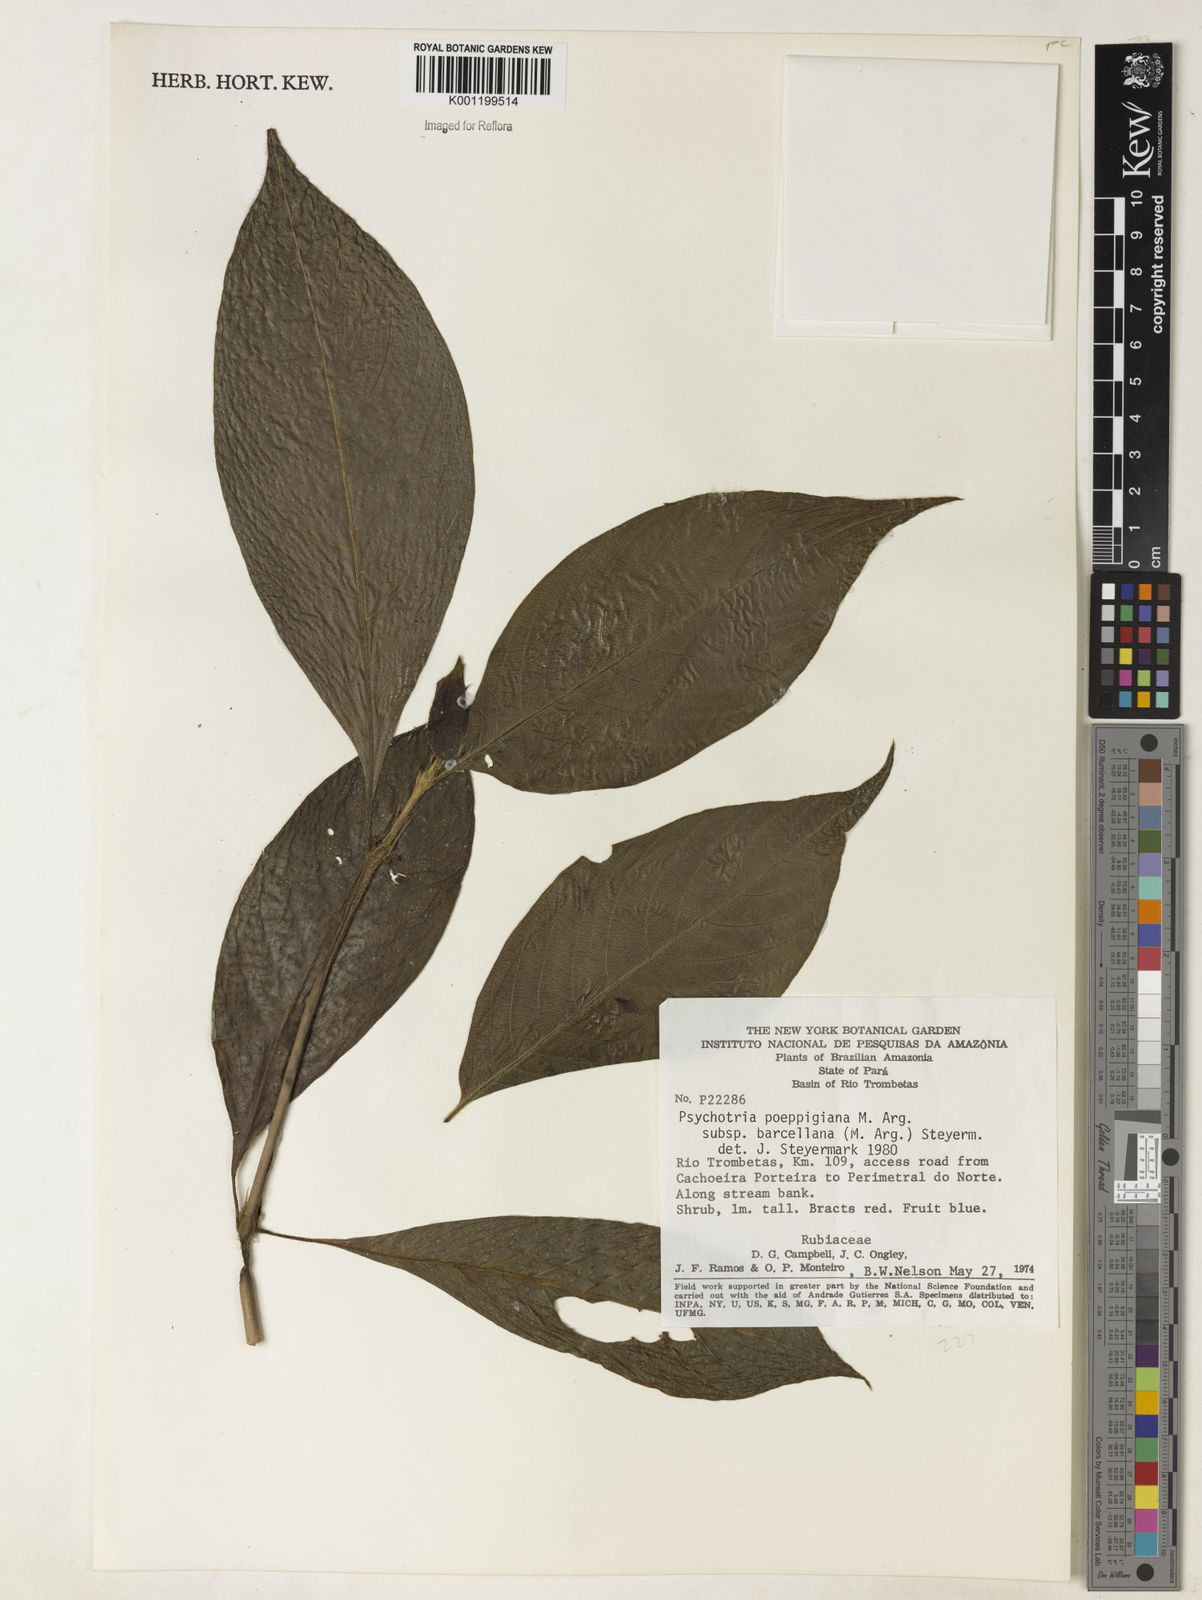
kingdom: Plantae
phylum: Tracheophyta
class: Magnoliopsida
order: Gentianales
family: Rubiaceae
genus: Psychotria
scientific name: Psychotria
